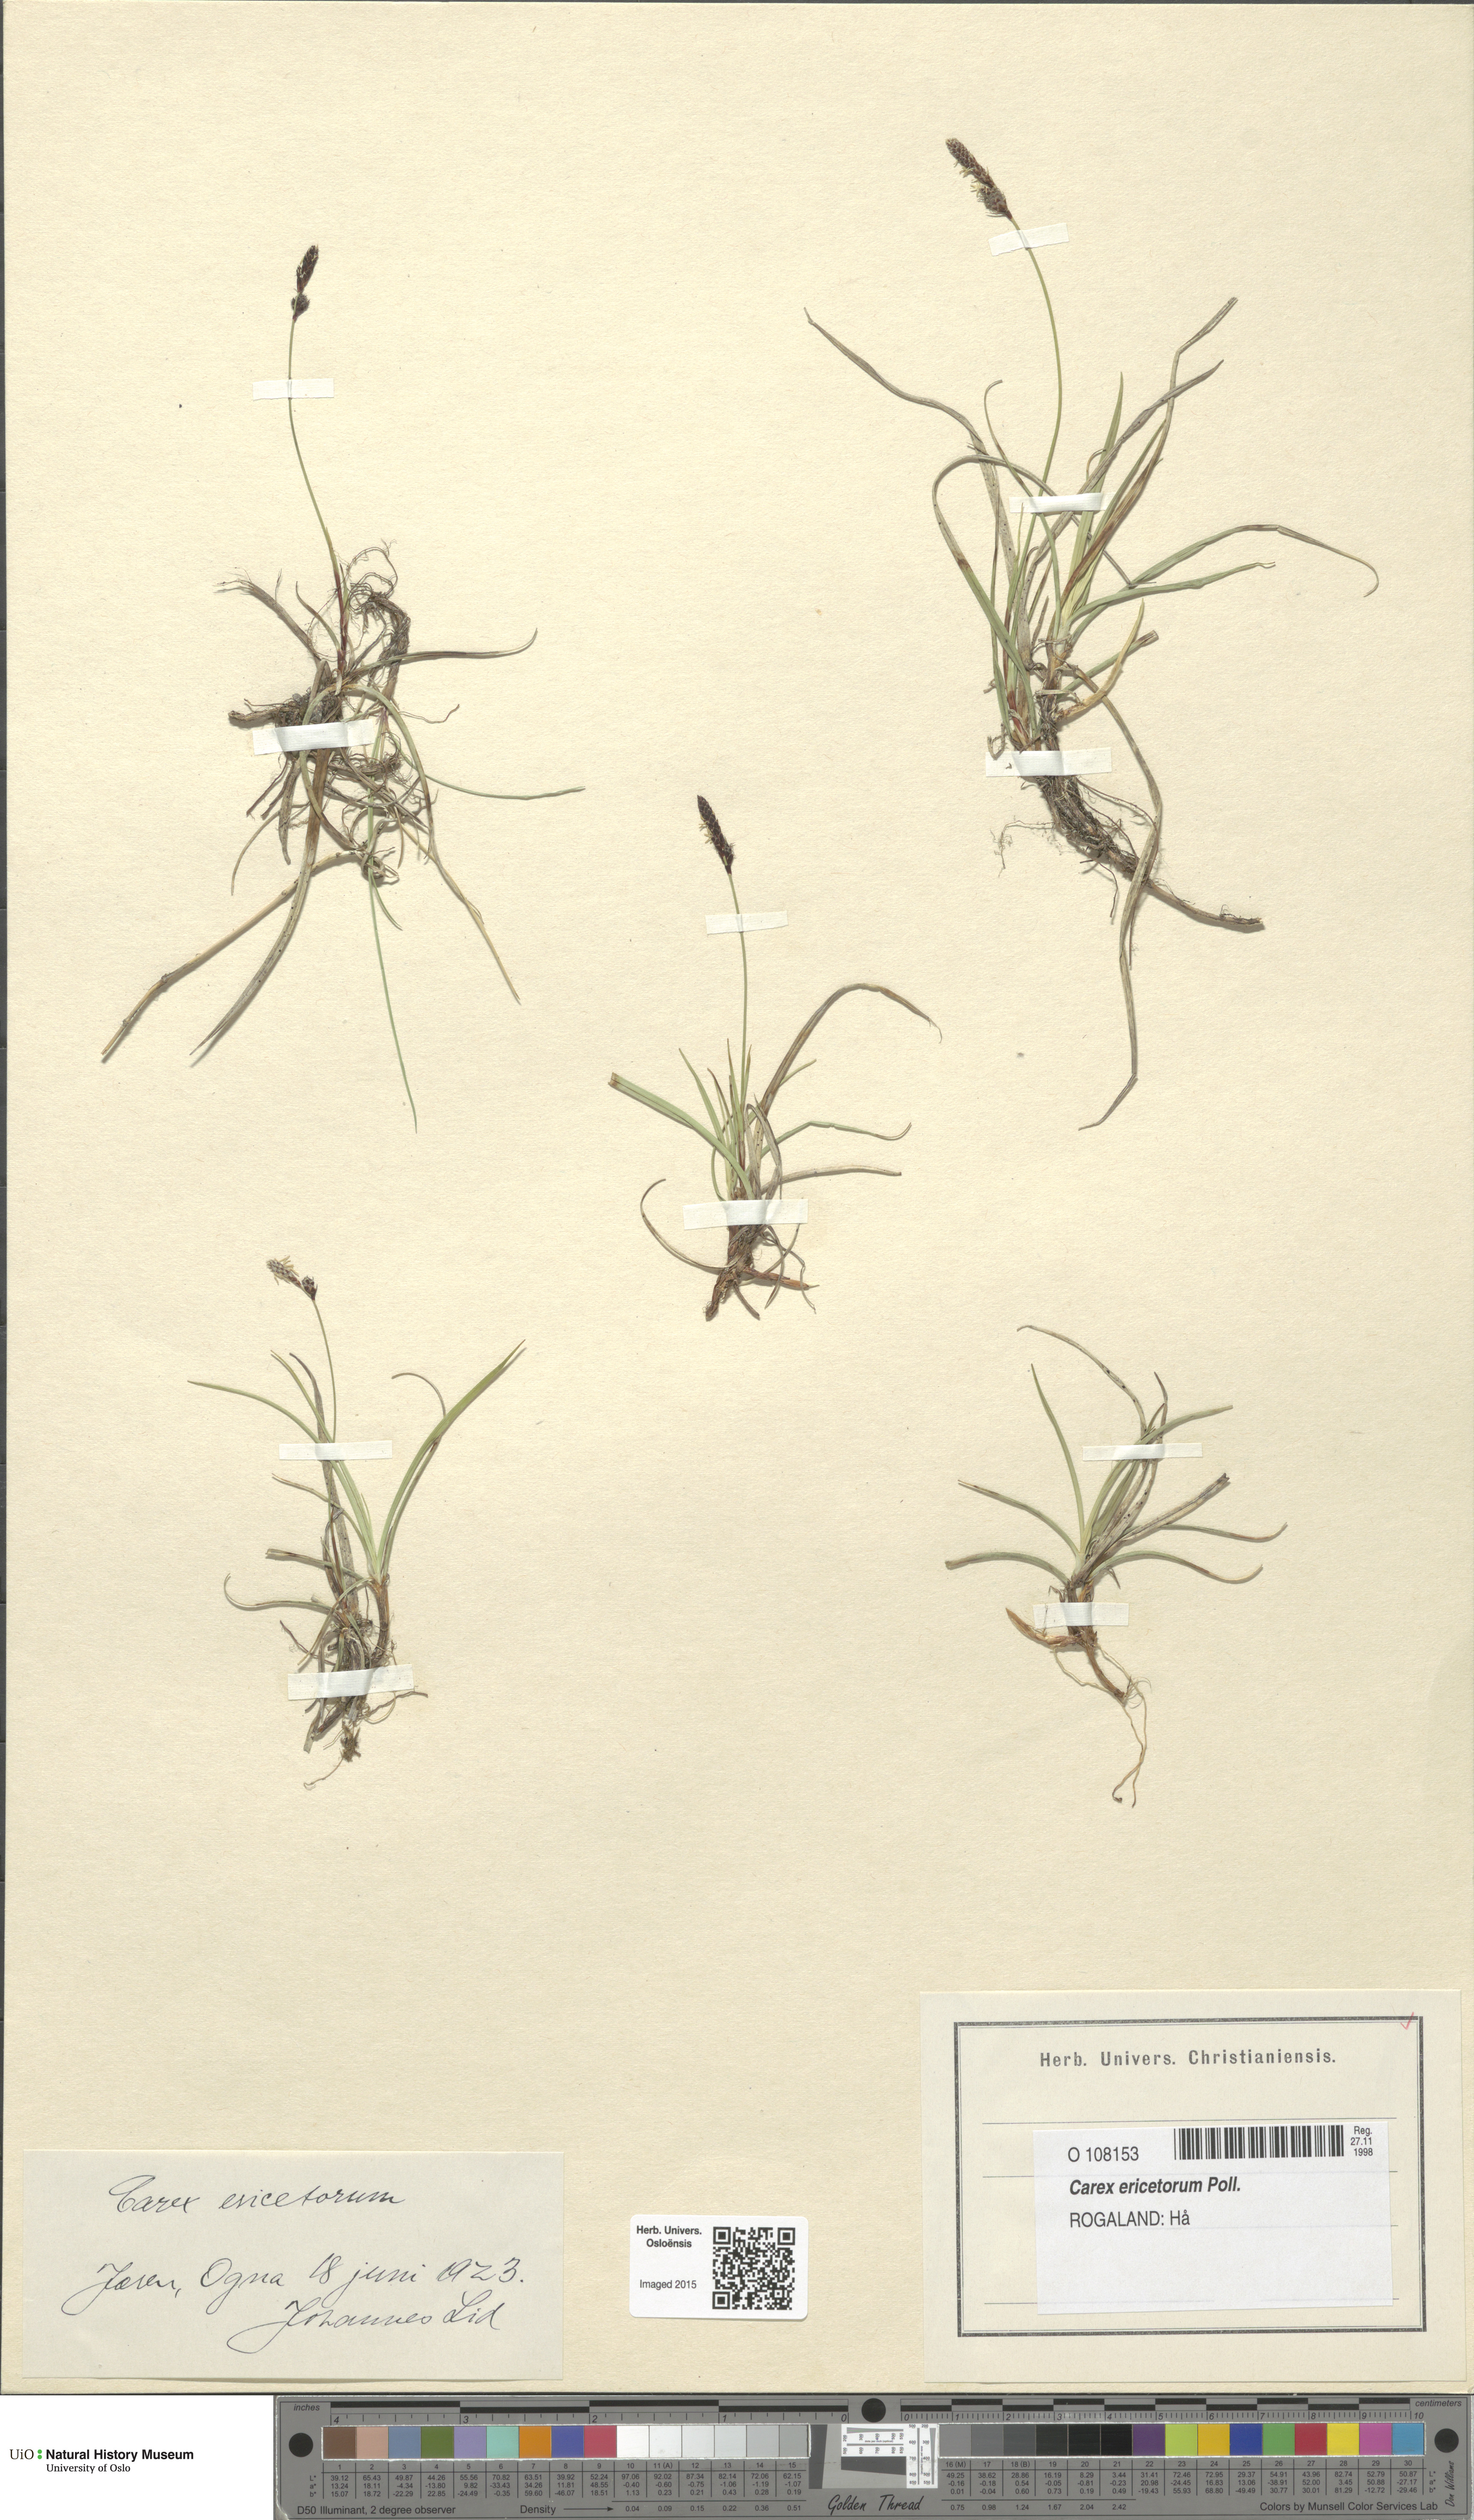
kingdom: Plantae
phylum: Tracheophyta
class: Liliopsida
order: Poales
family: Cyperaceae
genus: Carex
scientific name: Carex ericetorum
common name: Rare spring-sedge
